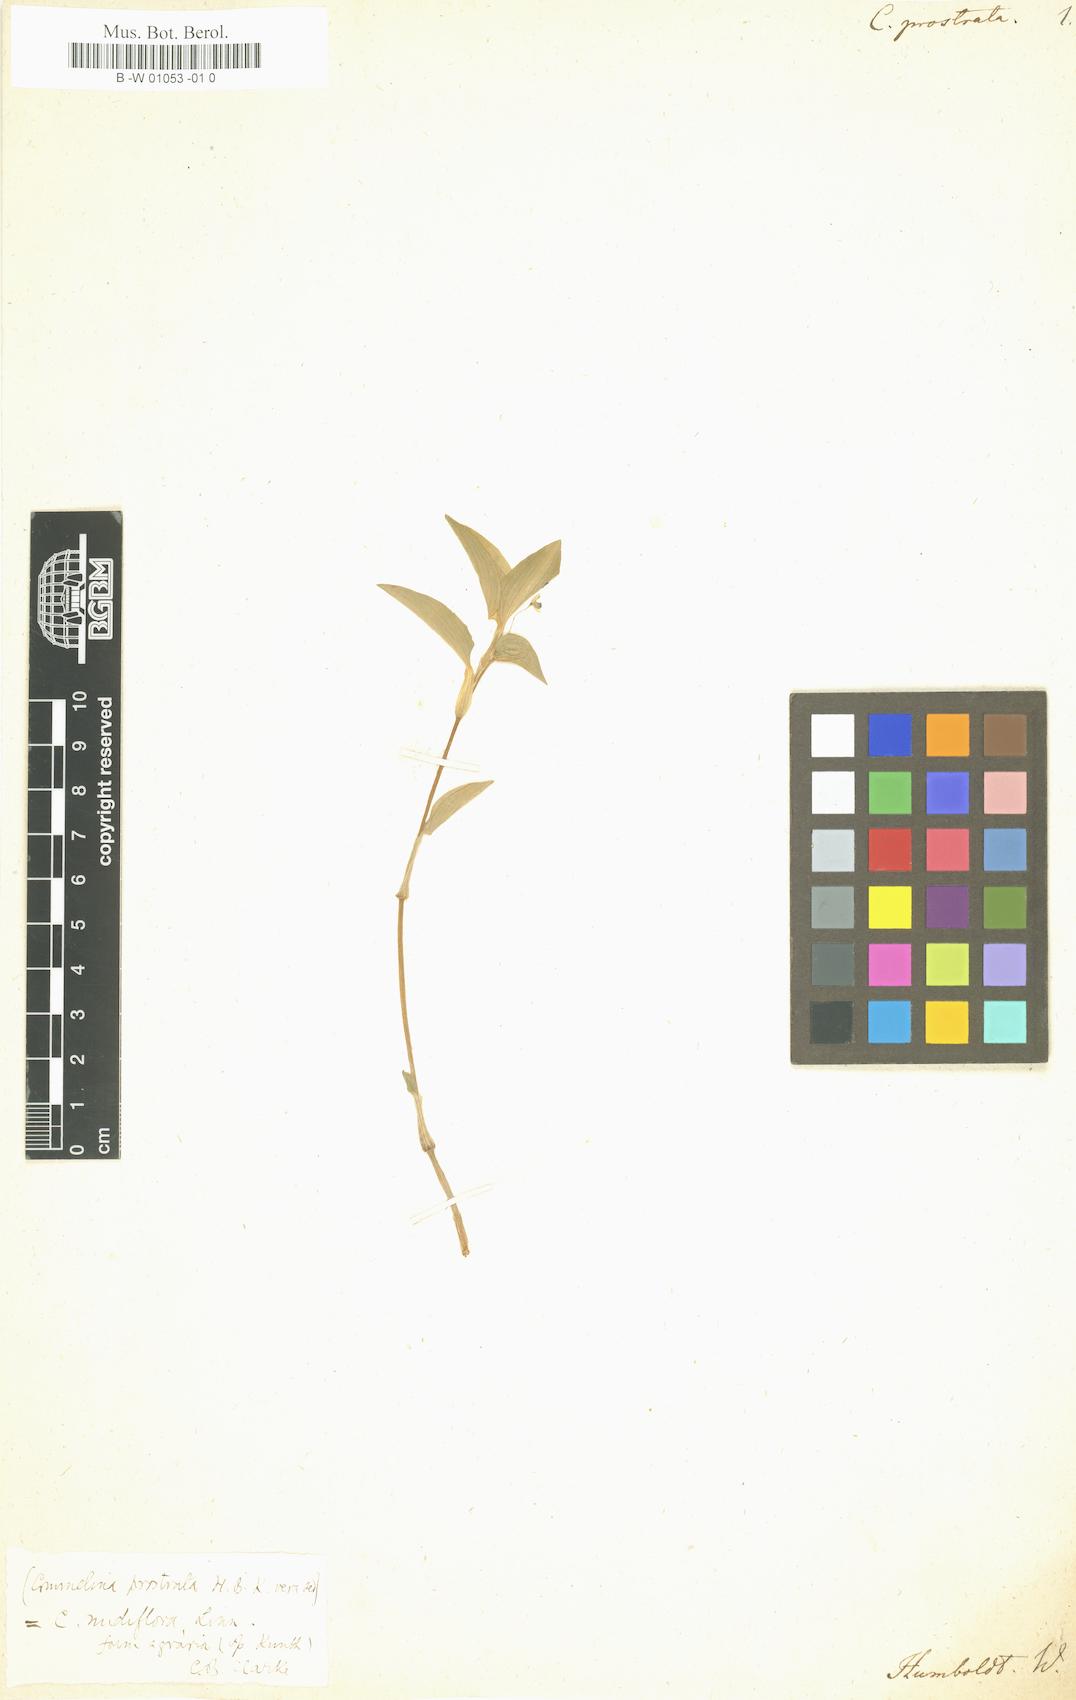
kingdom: Plantae
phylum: Tracheophyta
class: Liliopsida
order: Commelinales
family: Commelinaceae
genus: Commelina
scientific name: Commelina diffusa
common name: Climbing dayflower
